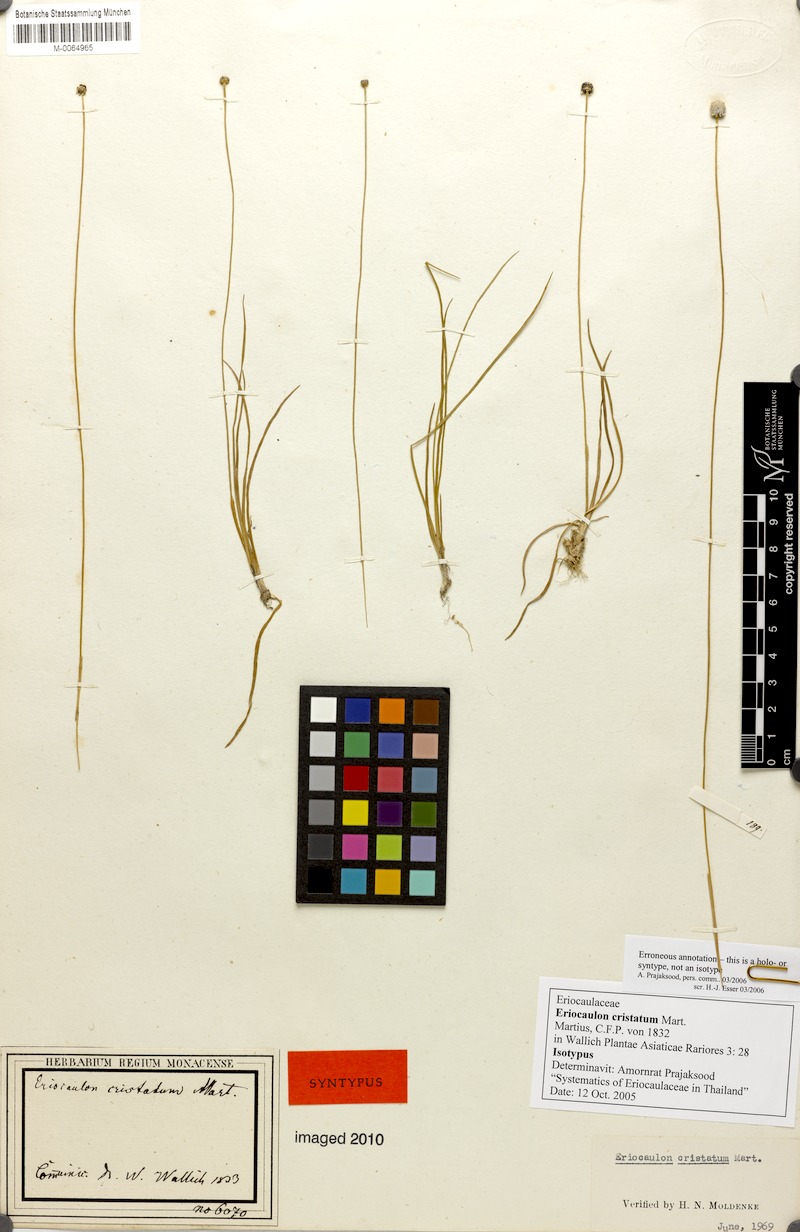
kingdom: Plantae
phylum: Tracheophyta
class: Liliopsida
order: Poales
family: Eriocaulaceae
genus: Eriocaulon
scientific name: Eriocaulon cristatum
